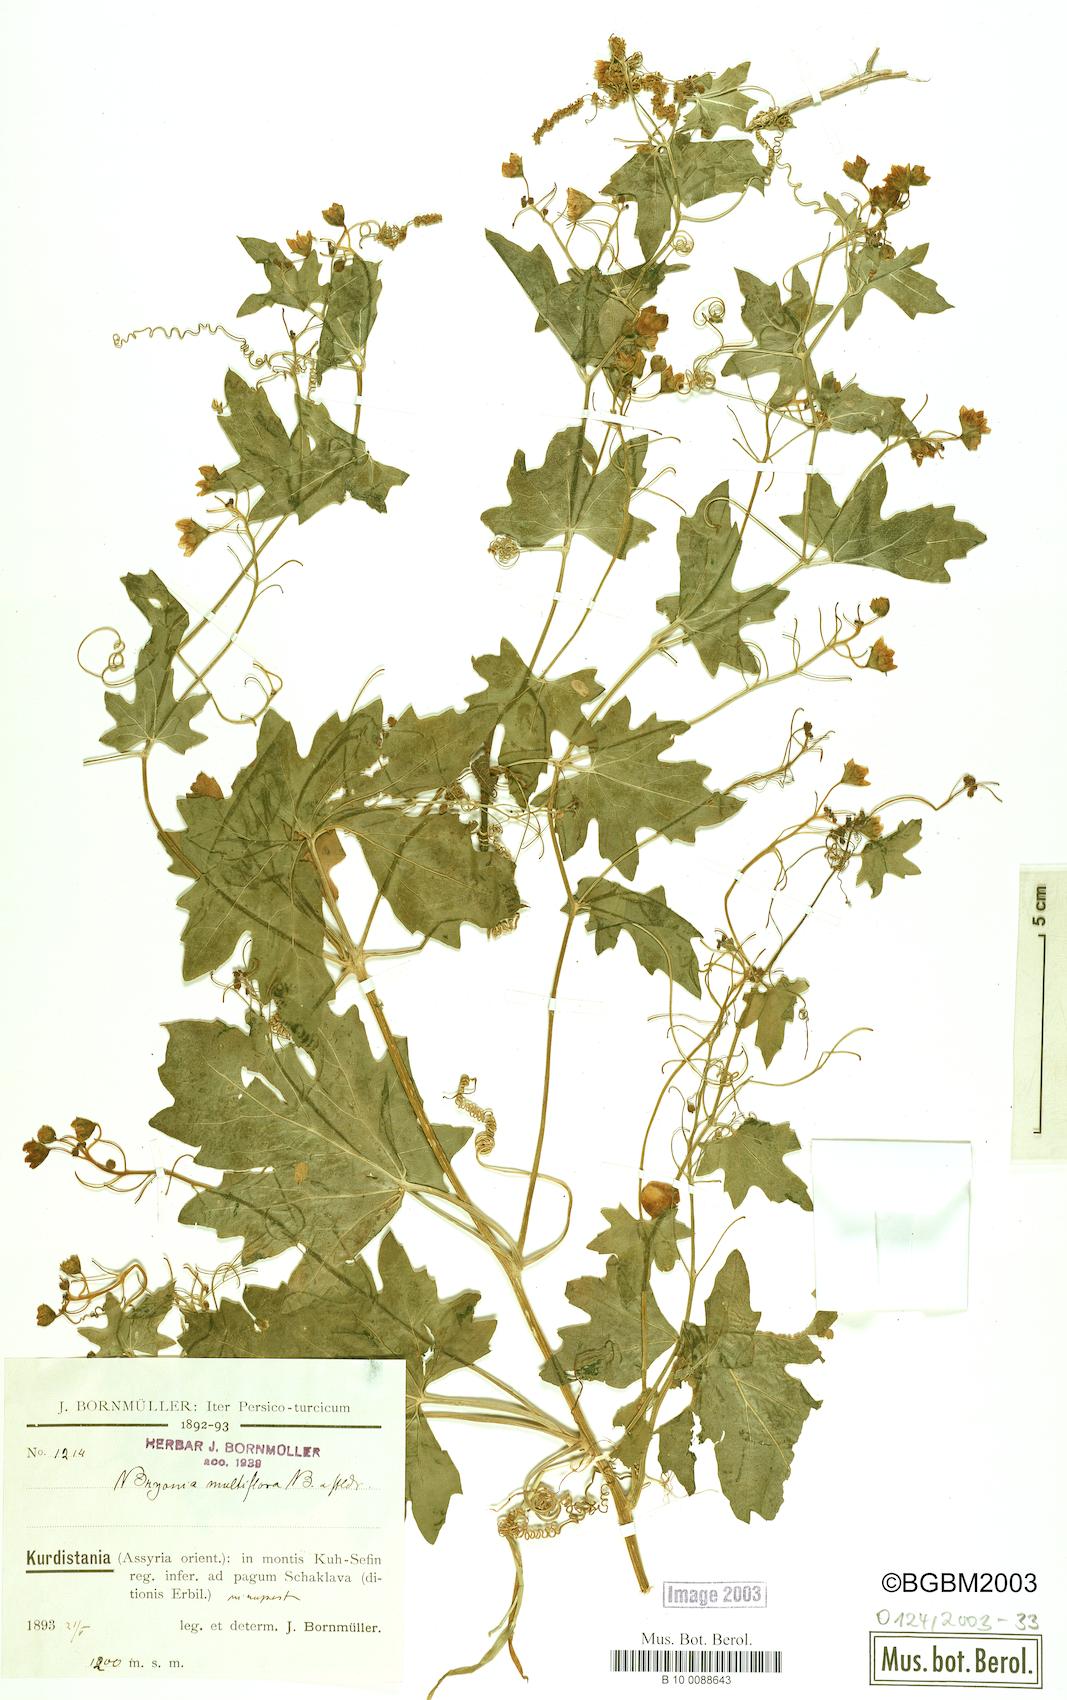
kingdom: Plantae
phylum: Tracheophyta
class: Magnoliopsida
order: Cucurbitales
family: Cucurbitaceae
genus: Bryonia
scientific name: Bryonia multiflora
